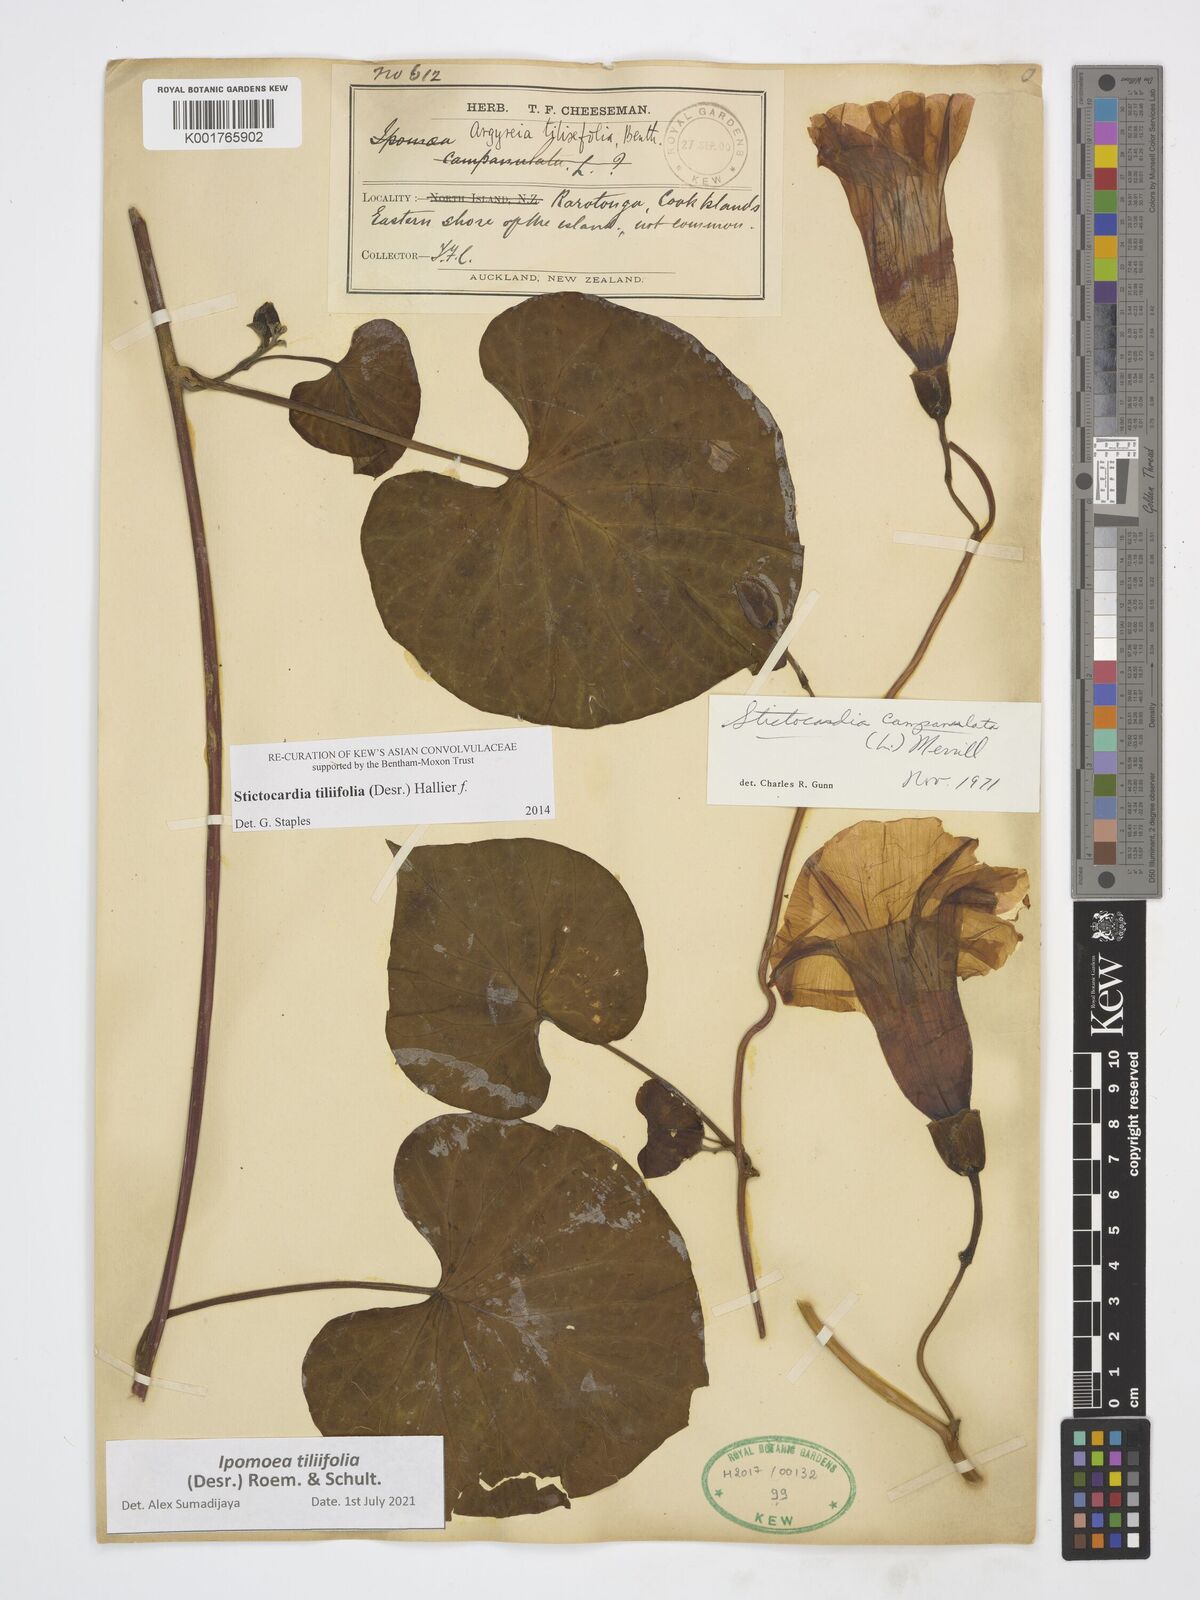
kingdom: Plantae
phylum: Tracheophyta
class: Magnoliopsida
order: Solanales
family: Convolvulaceae
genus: Stictocardia
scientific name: Stictocardia tiliifolia
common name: Spottedheart
